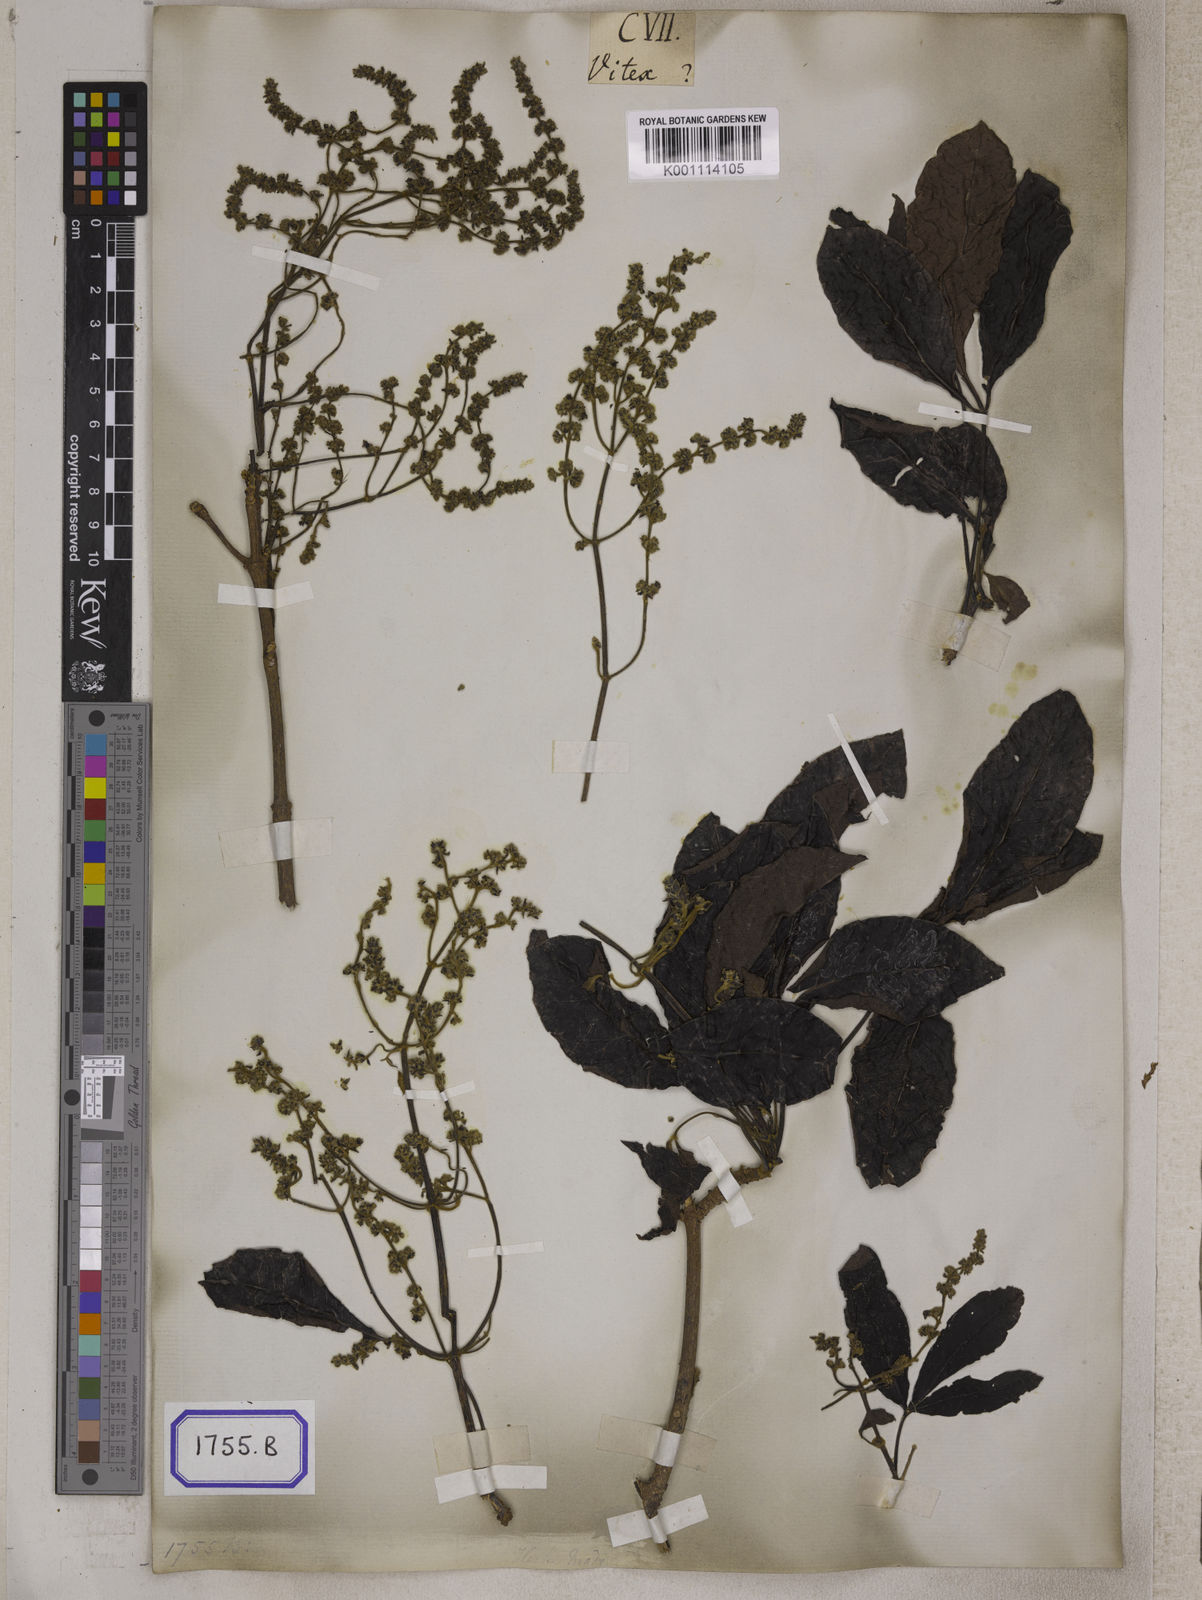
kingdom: Plantae
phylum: Tracheophyta
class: Magnoliopsida
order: Lamiales
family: Lamiaceae
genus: Vitex
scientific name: Vitex altissima
